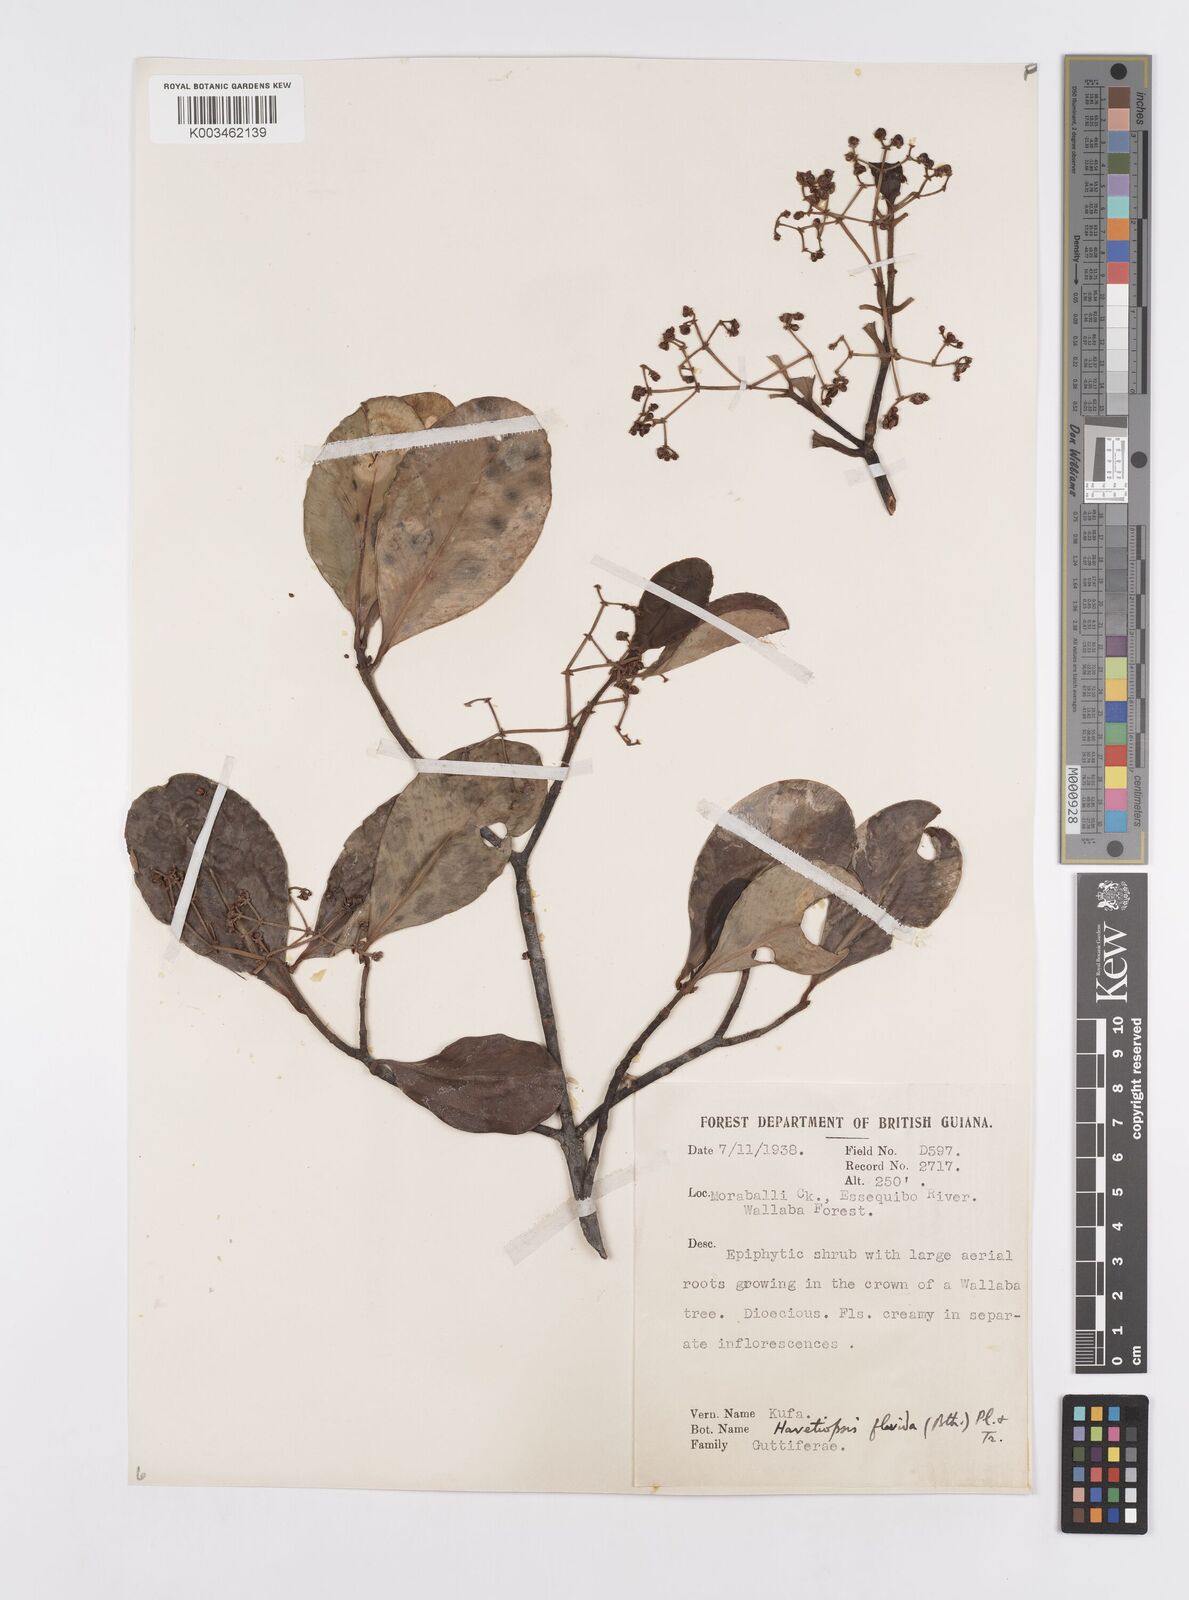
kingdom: Plantae
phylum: Tracheophyta
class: Magnoliopsida
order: Malpighiales
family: Clusiaceae
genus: Clusia
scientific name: Clusia flavida
